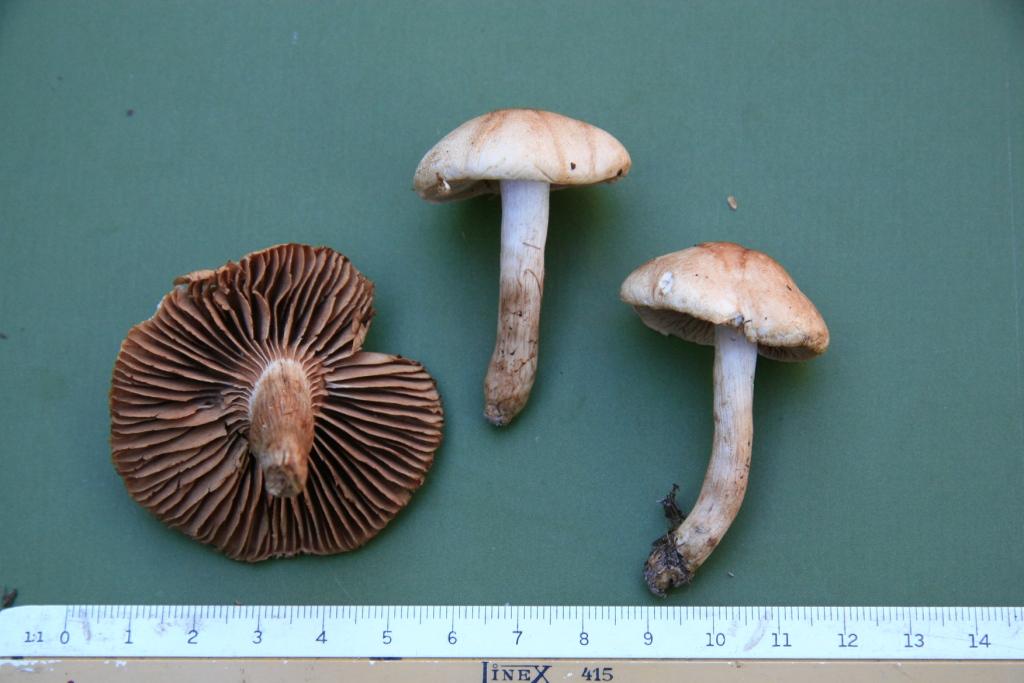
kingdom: Fungi
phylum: Basidiomycota
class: Agaricomycetes
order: Agaricales
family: Hymenogastraceae
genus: Hebeloma
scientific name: Hebeloma odoratissimum
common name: filtet tåreblad
